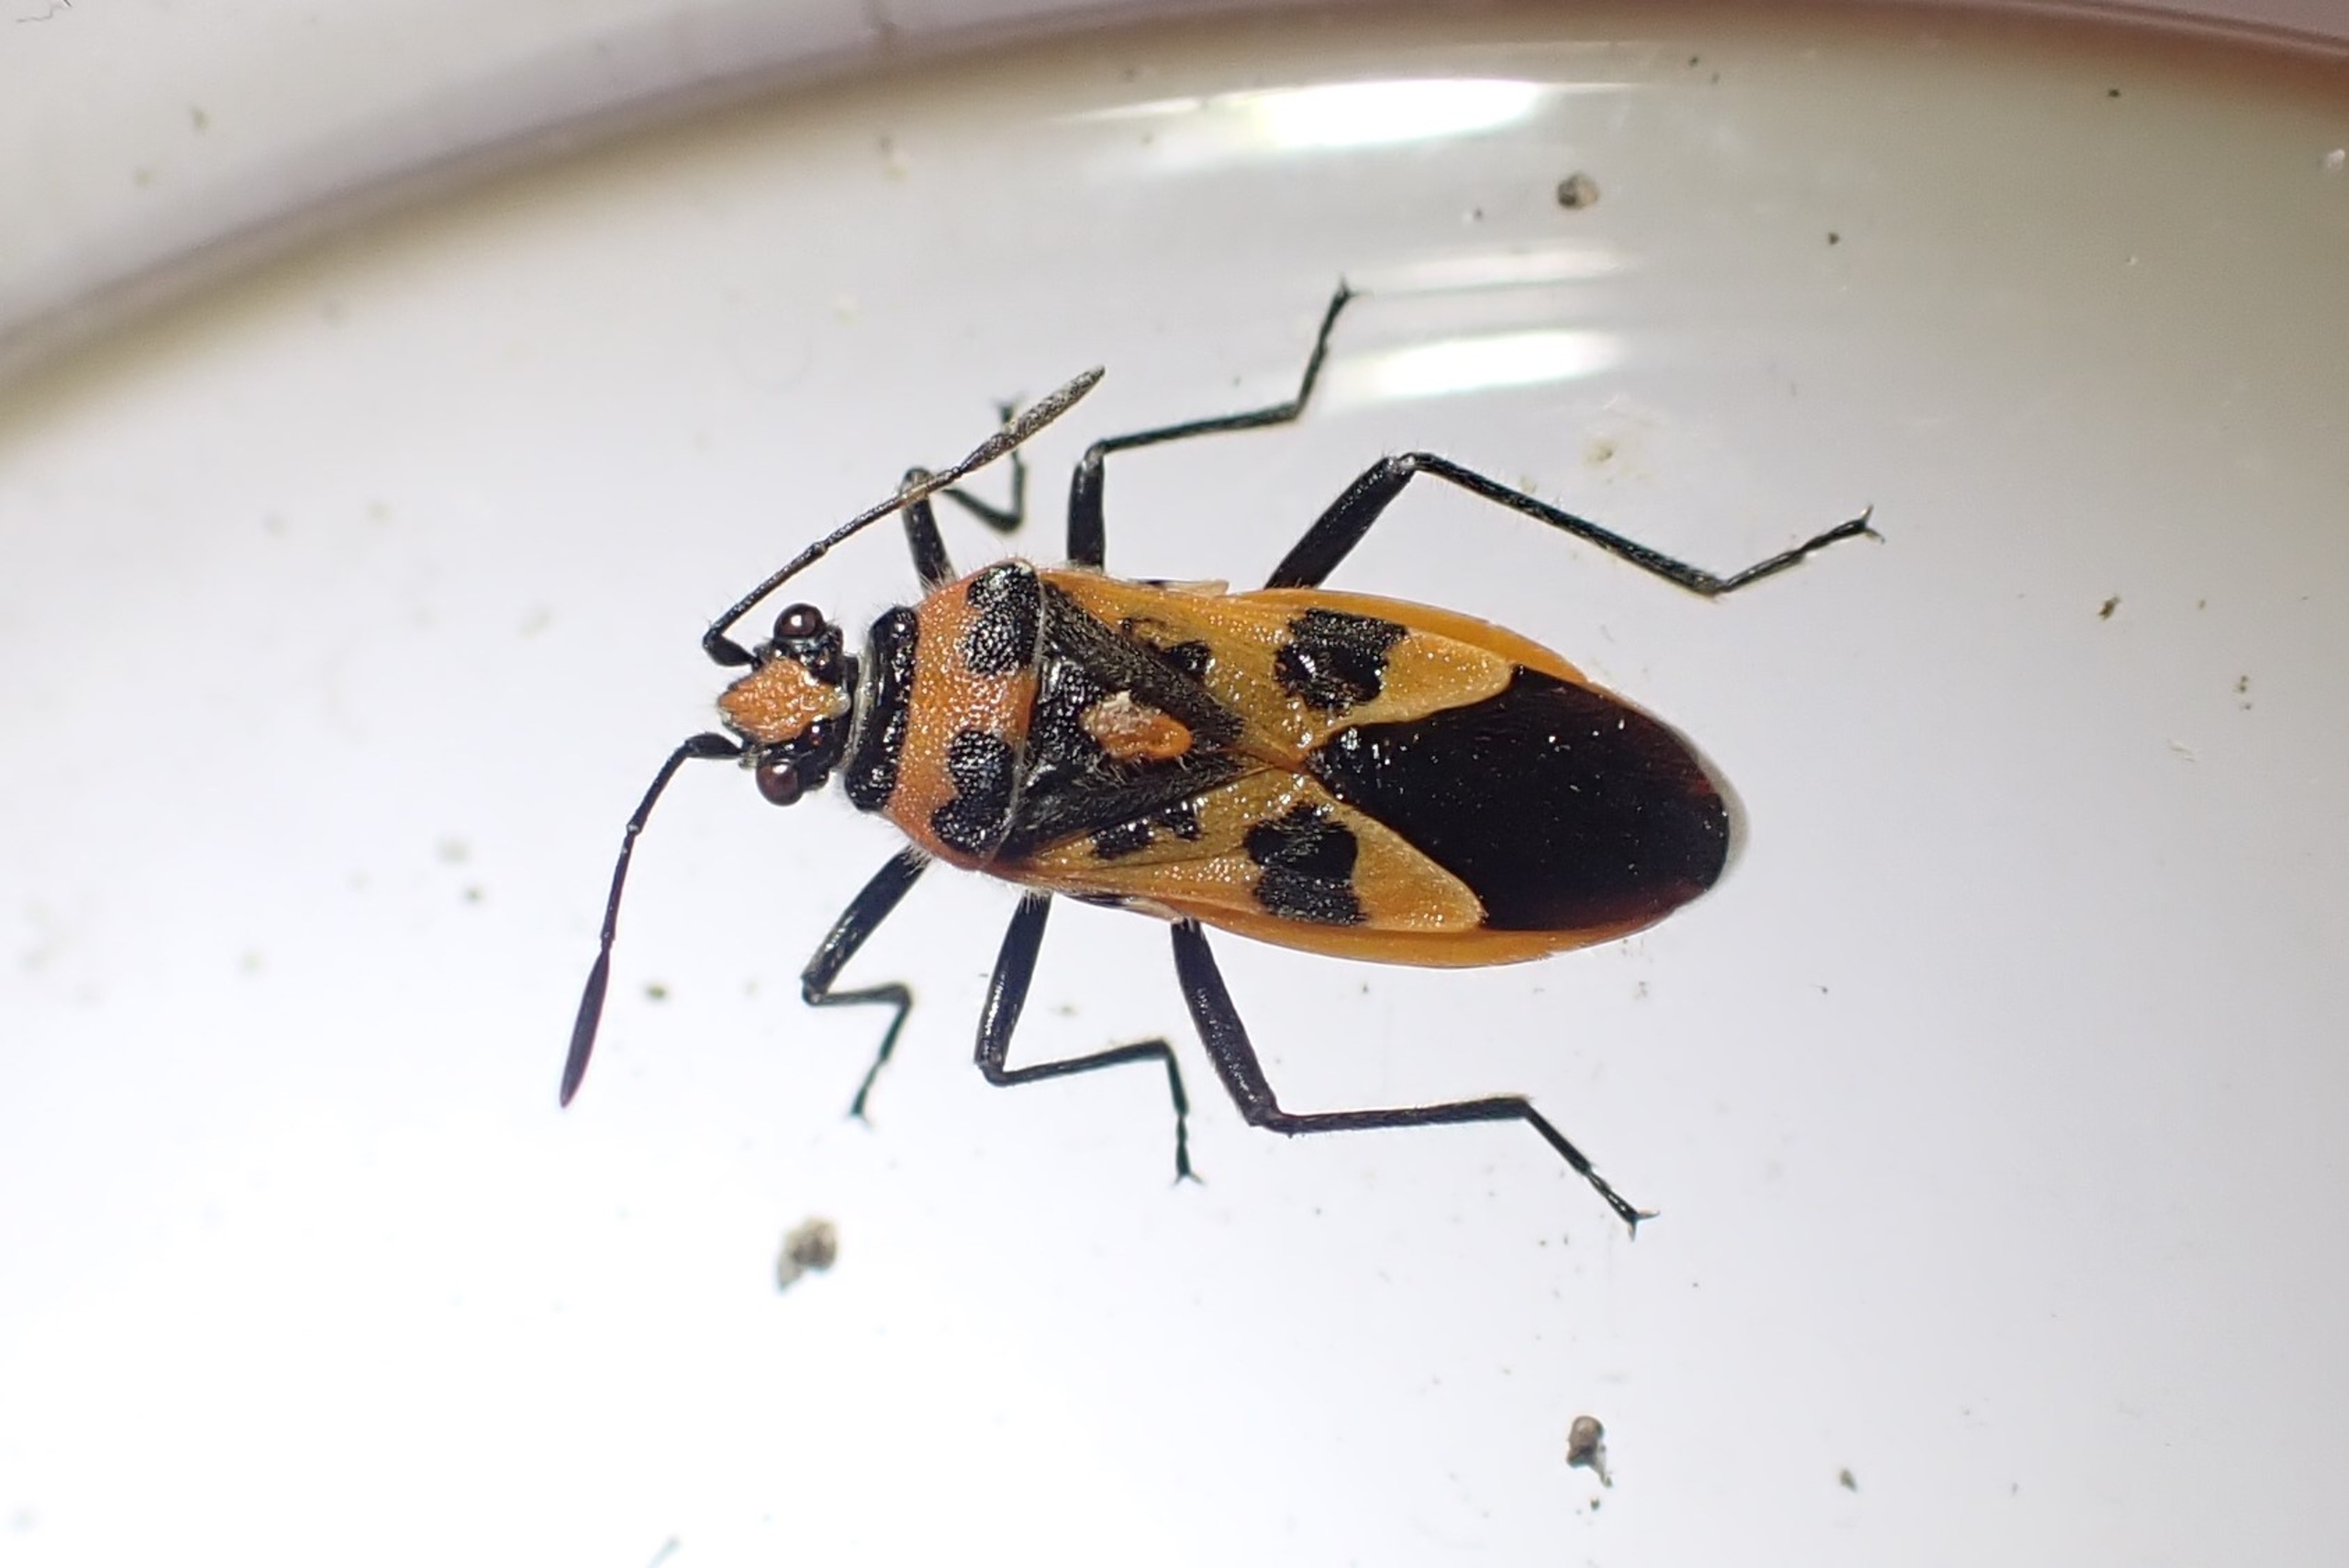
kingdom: Animalia
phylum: Arthropoda
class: Insecta
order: Hemiptera
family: Rhopalidae
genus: Corizus
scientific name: Corizus hyoscyami
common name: Rød kanttæge
